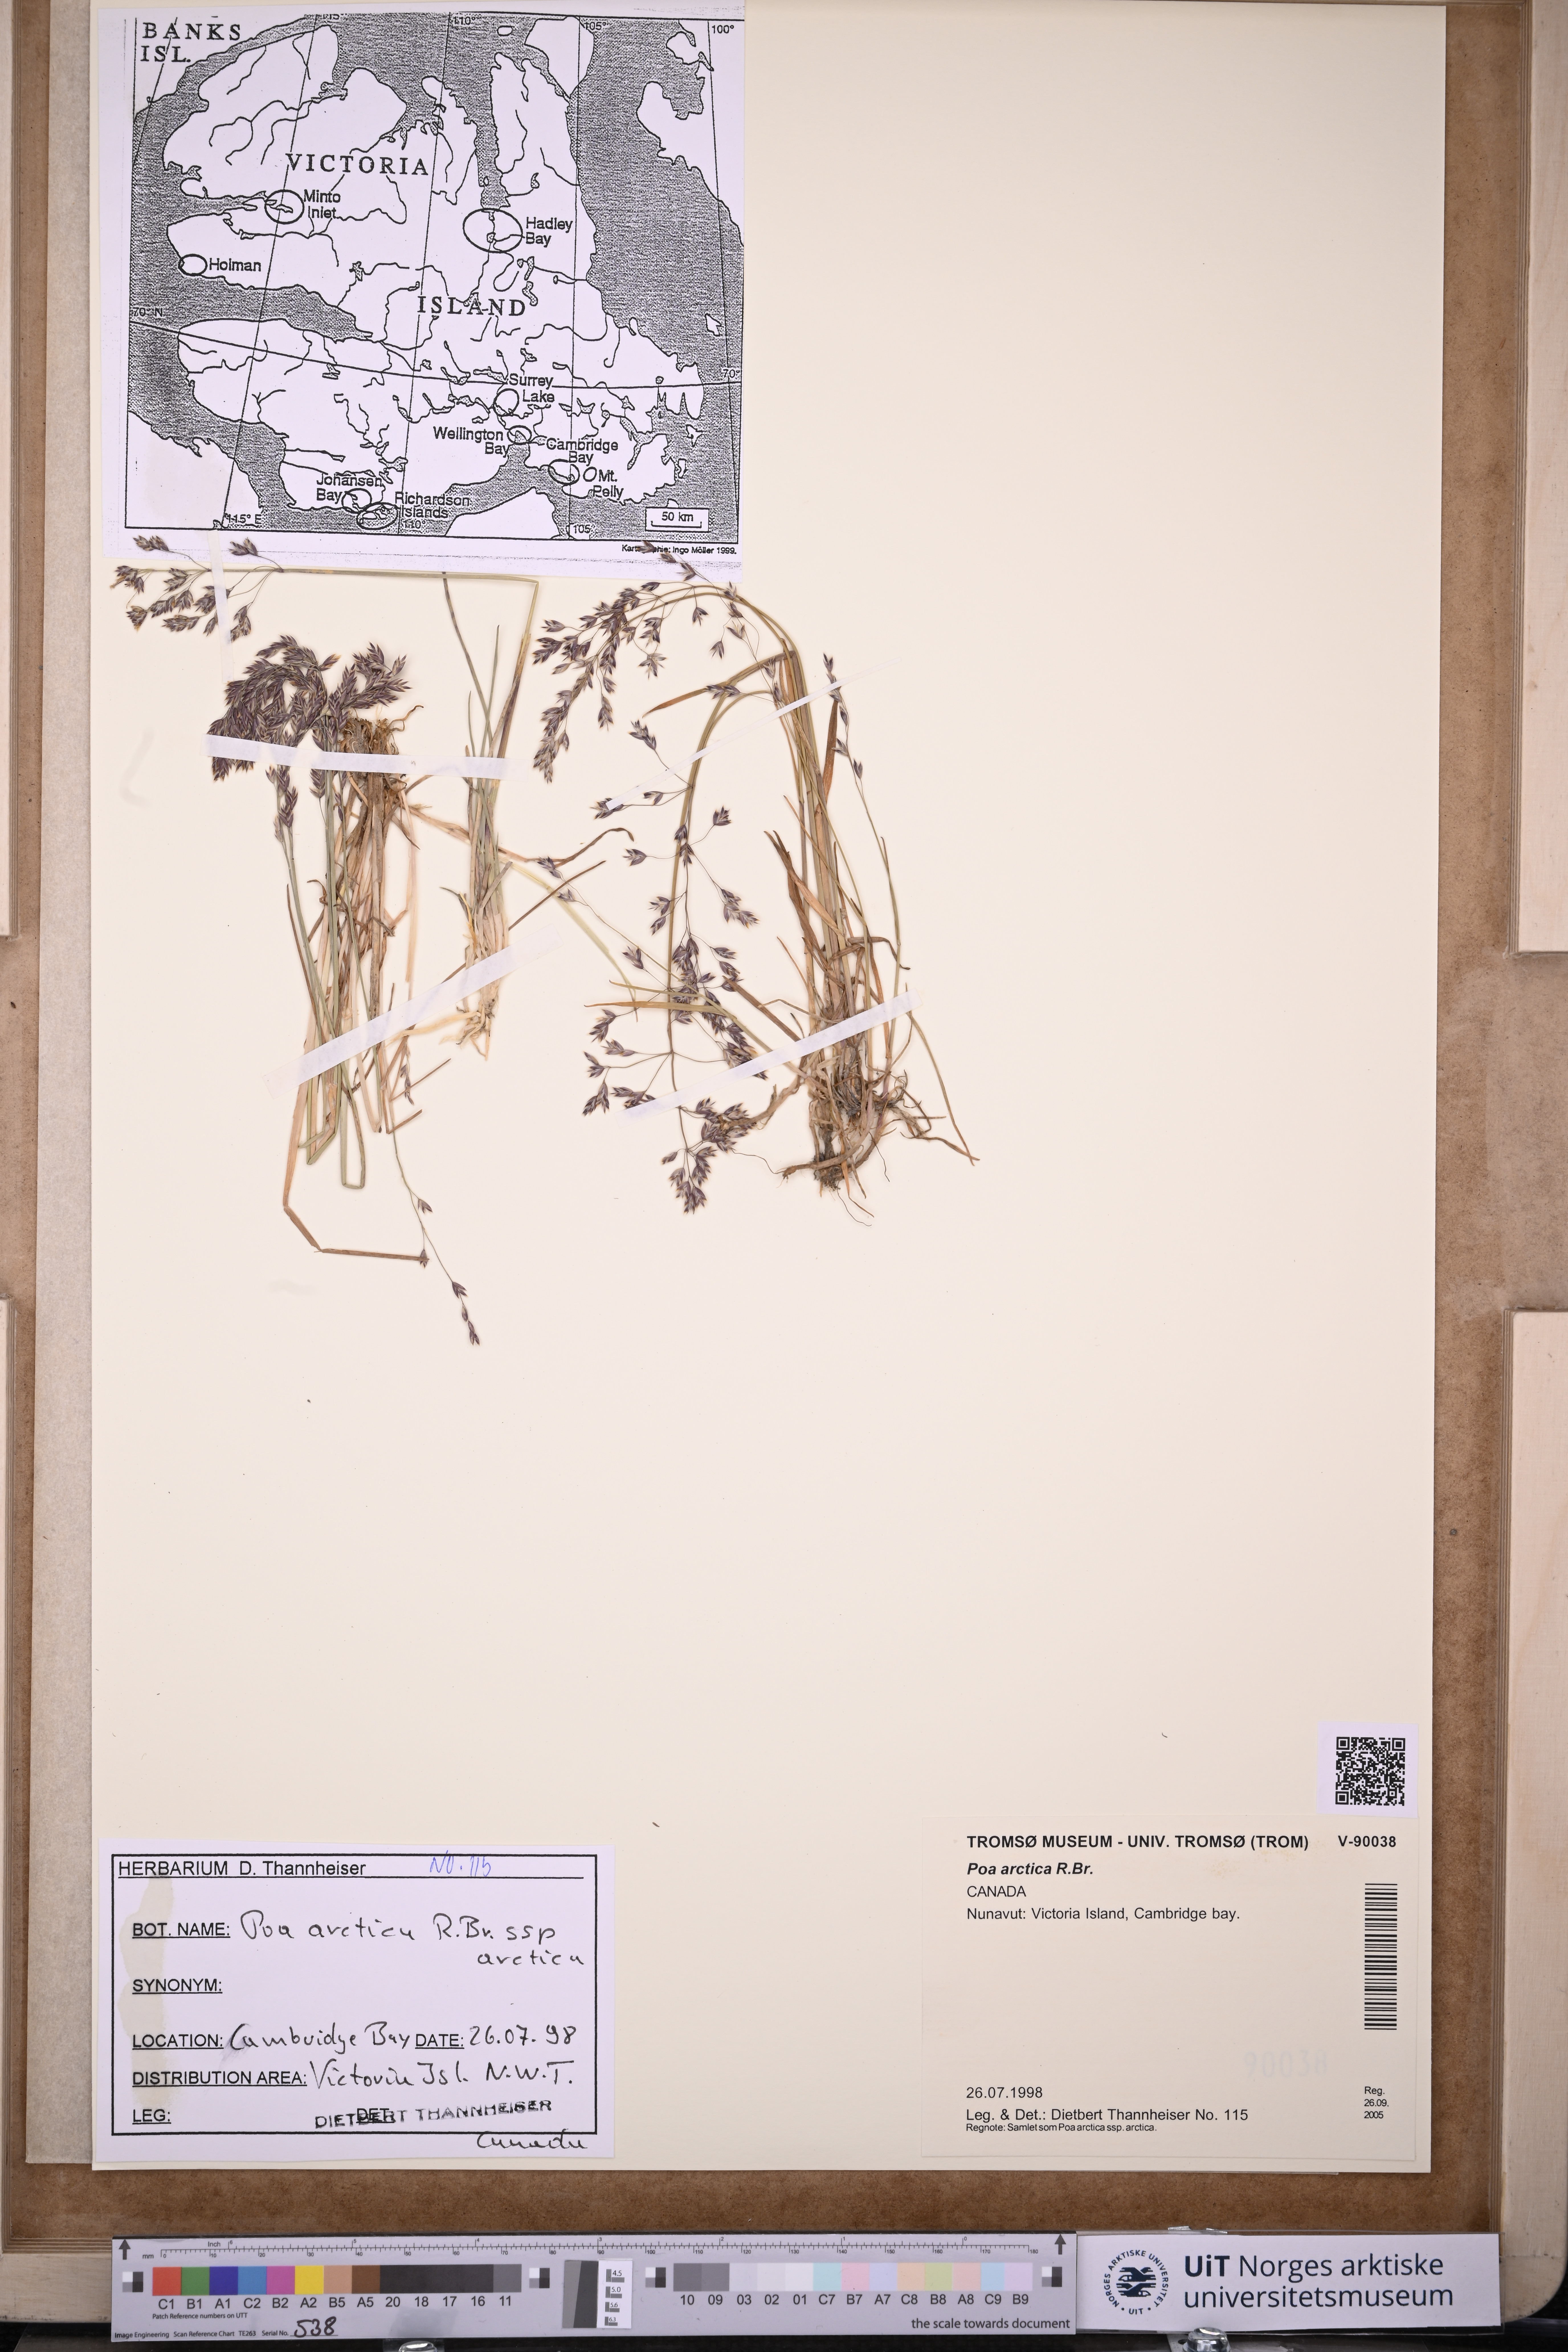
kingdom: Plantae
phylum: Tracheophyta
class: Liliopsida
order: Poales
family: Poaceae
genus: Poa
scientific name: Poa arctica
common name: Arctic bluegrass
